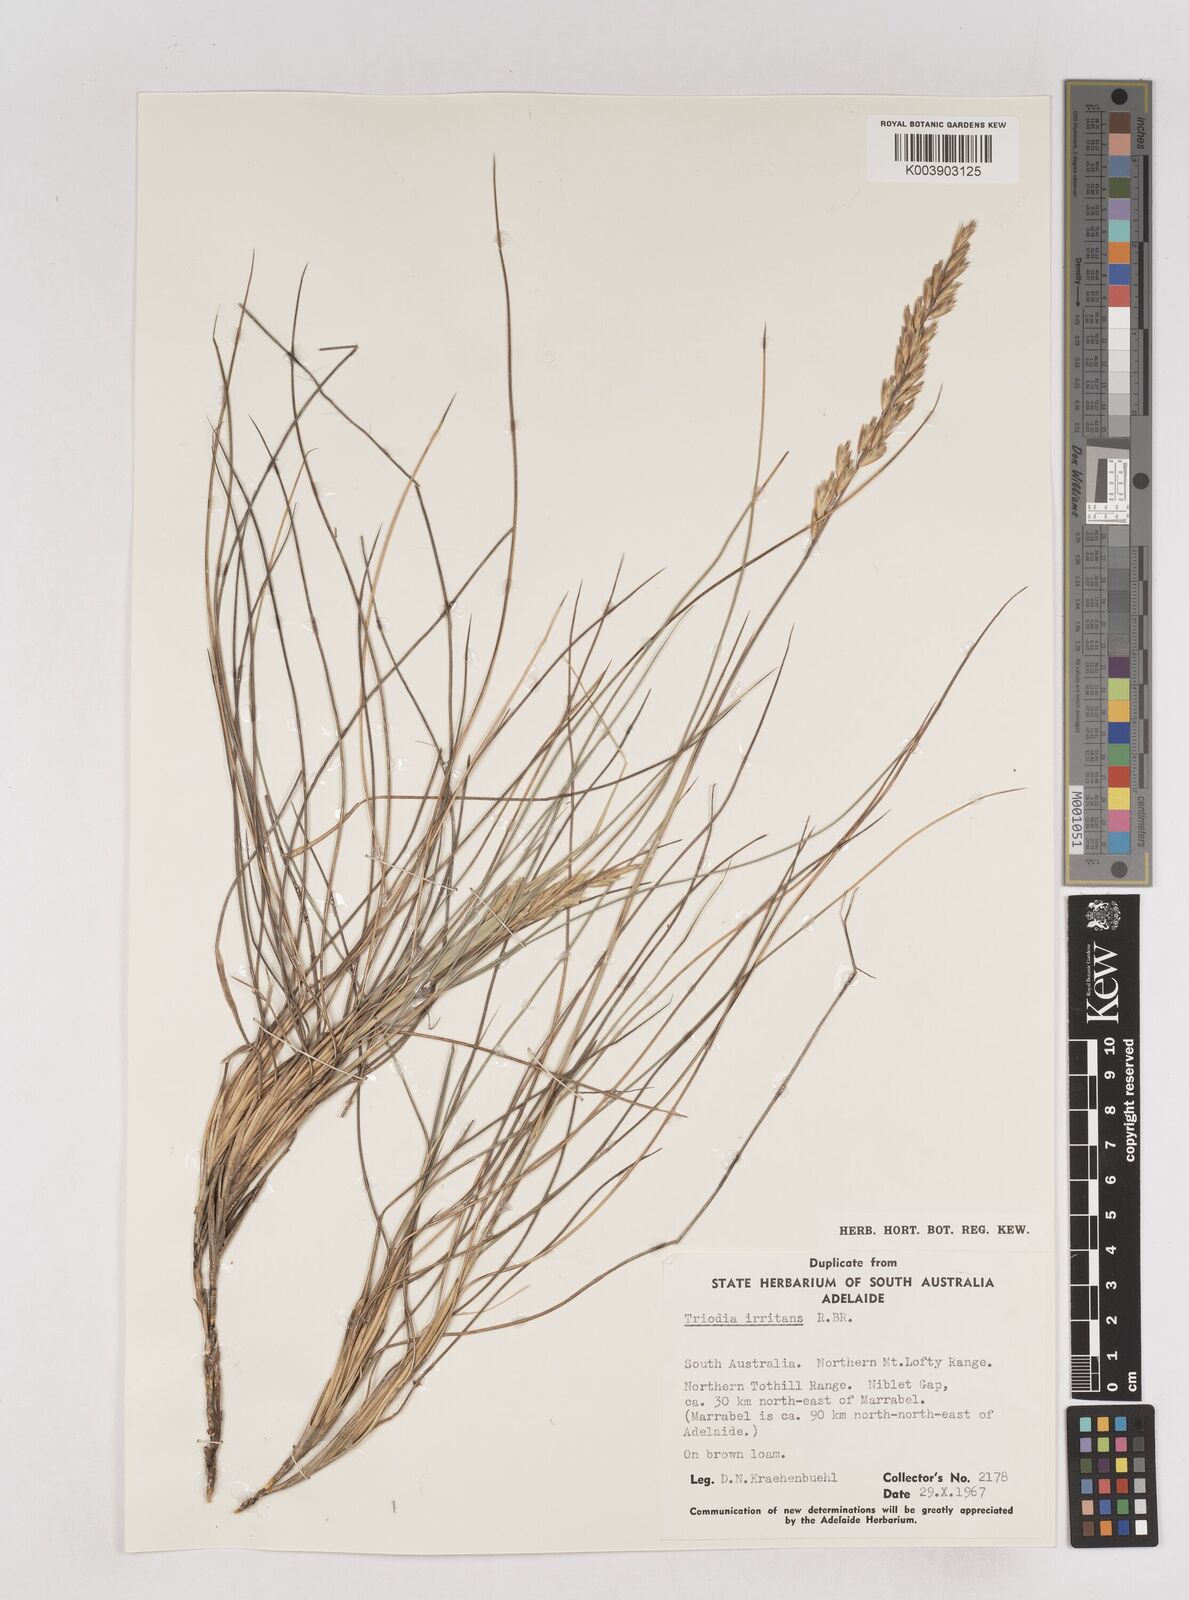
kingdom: Plantae
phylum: Tracheophyta
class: Liliopsida
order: Poales
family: Poaceae
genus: Triodia
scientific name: Triodia irritans
